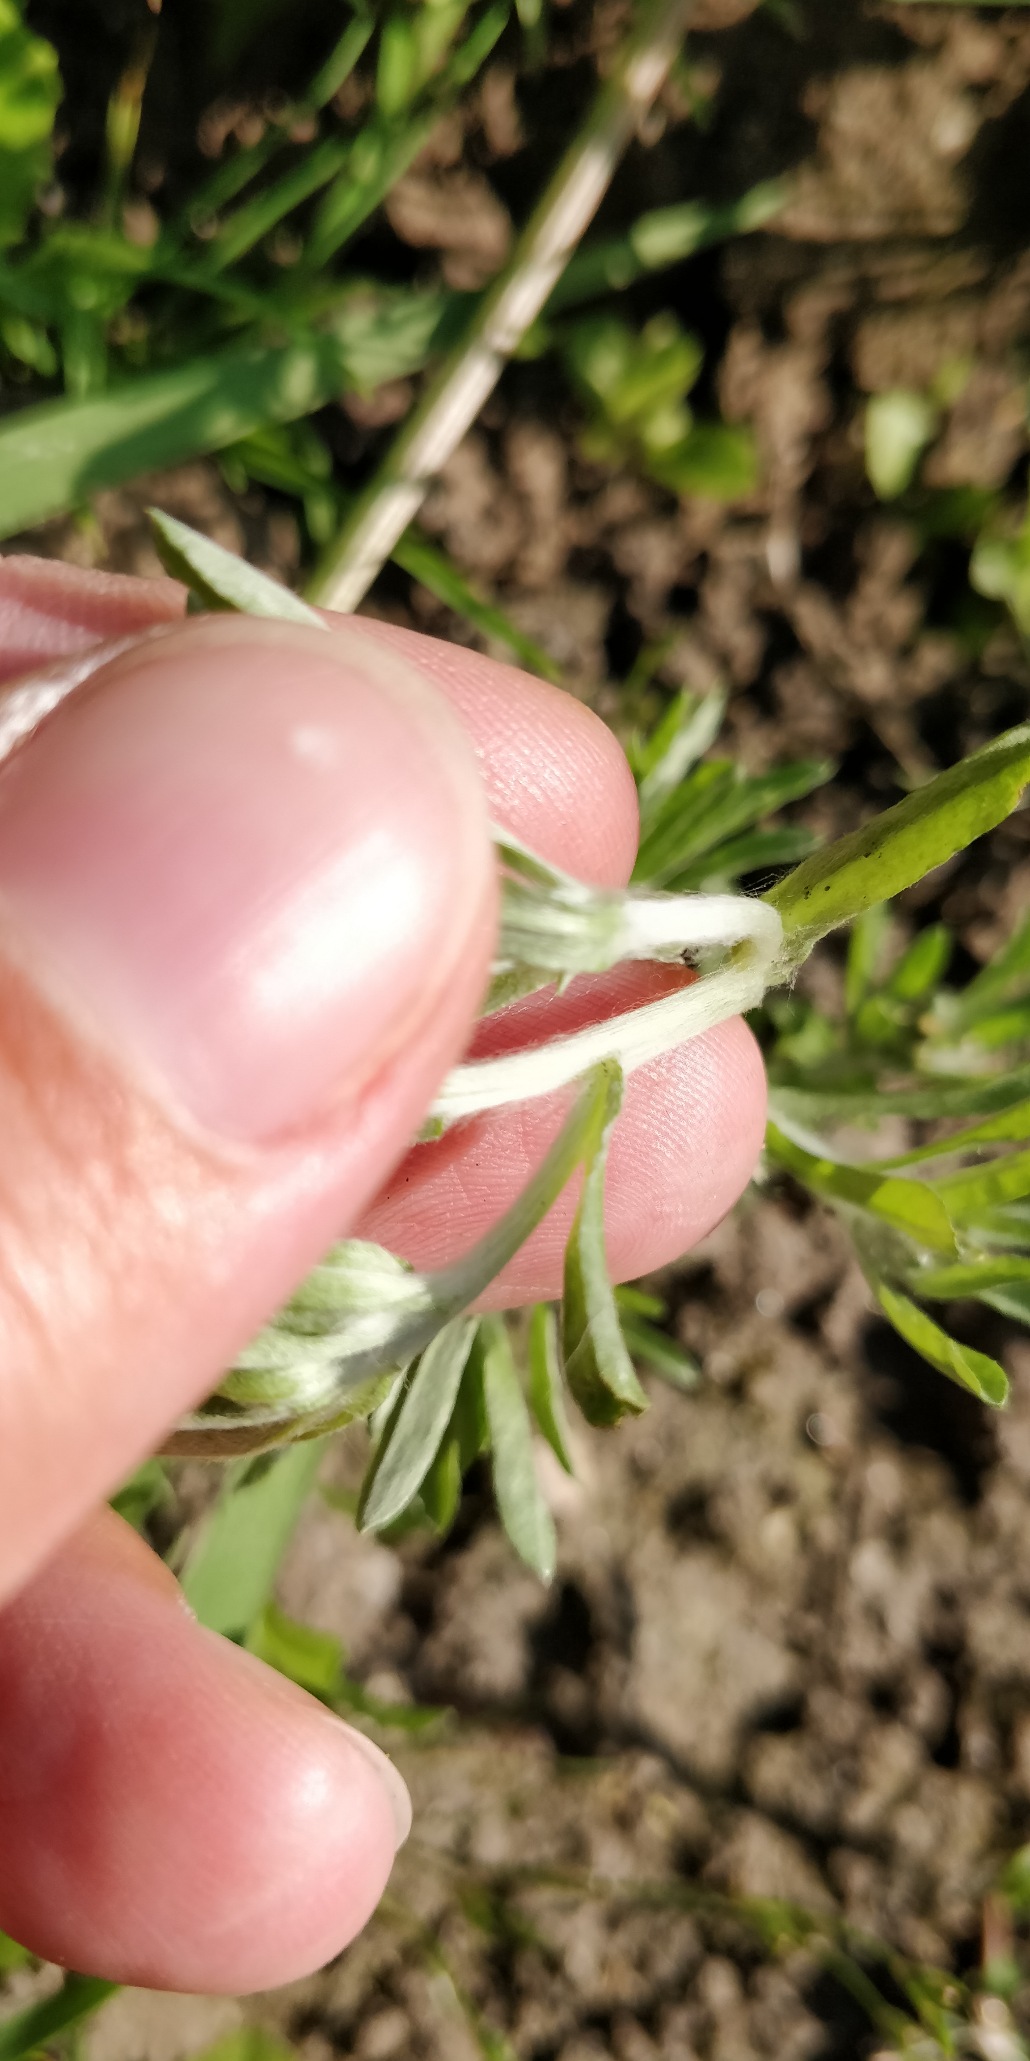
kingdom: Plantae
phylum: Tracheophyta
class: Magnoliopsida
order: Asterales
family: Asteraceae
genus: Gnaphalium
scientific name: Gnaphalium uliginosum
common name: Sump-evighedsblomst
